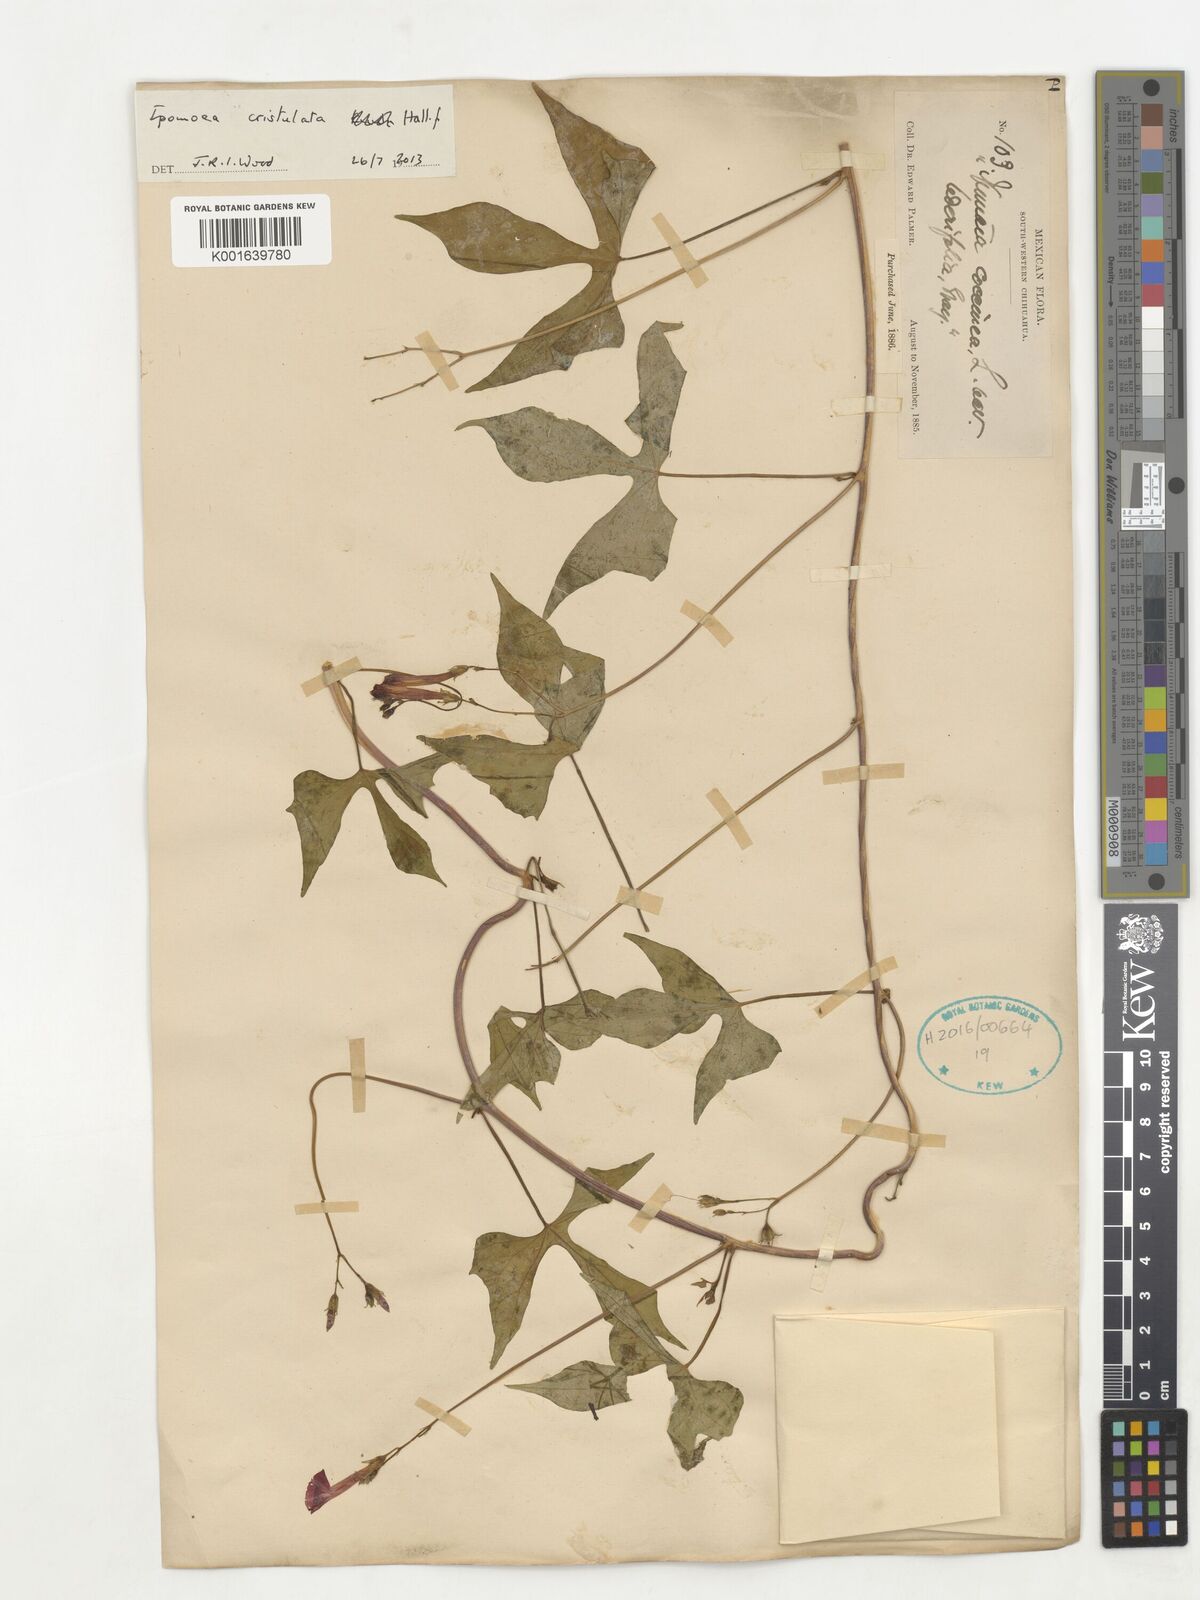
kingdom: Plantae
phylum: Tracheophyta
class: Magnoliopsida
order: Solanales
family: Convolvulaceae
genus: Ipomoea
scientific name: Ipomoea cristulata
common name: Trans-pecos morning-glory
